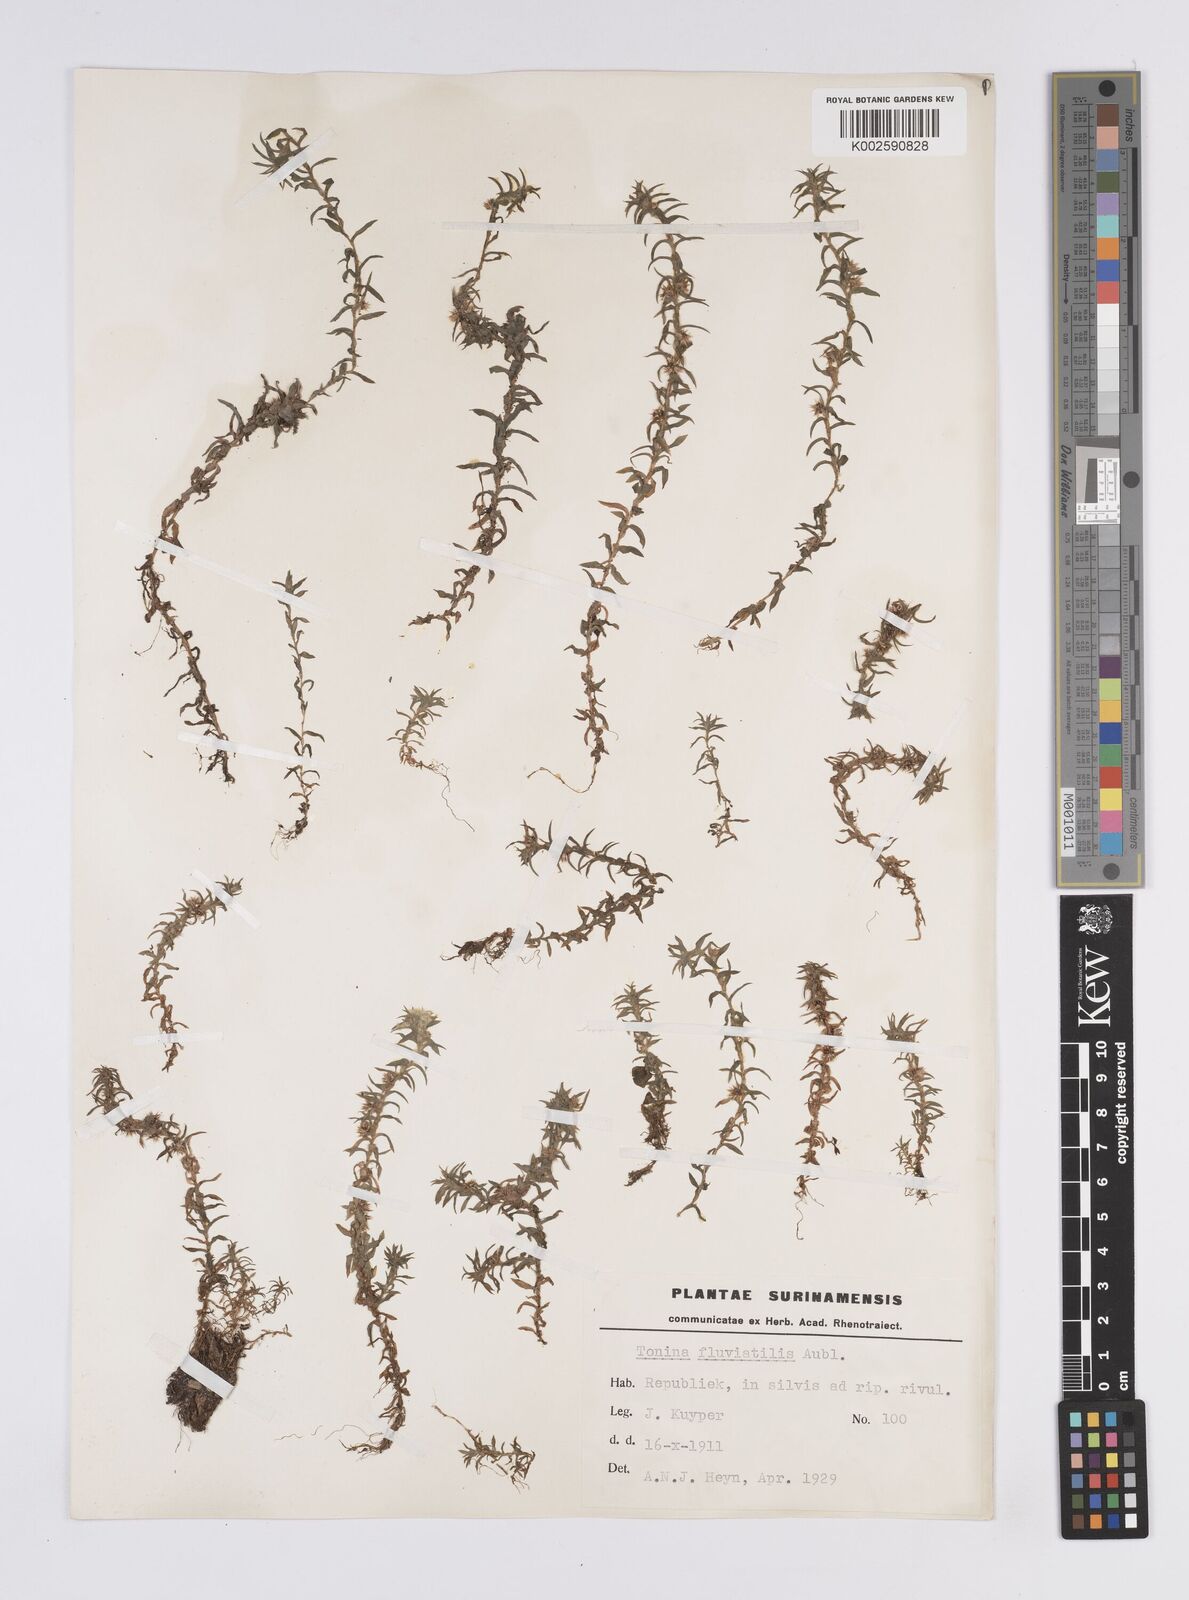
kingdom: Plantae
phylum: Tracheophyta
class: Liliopsida
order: Poales
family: Eriocaulaceae
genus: Paepalanthus
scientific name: Paepalanthus fluviatilis
